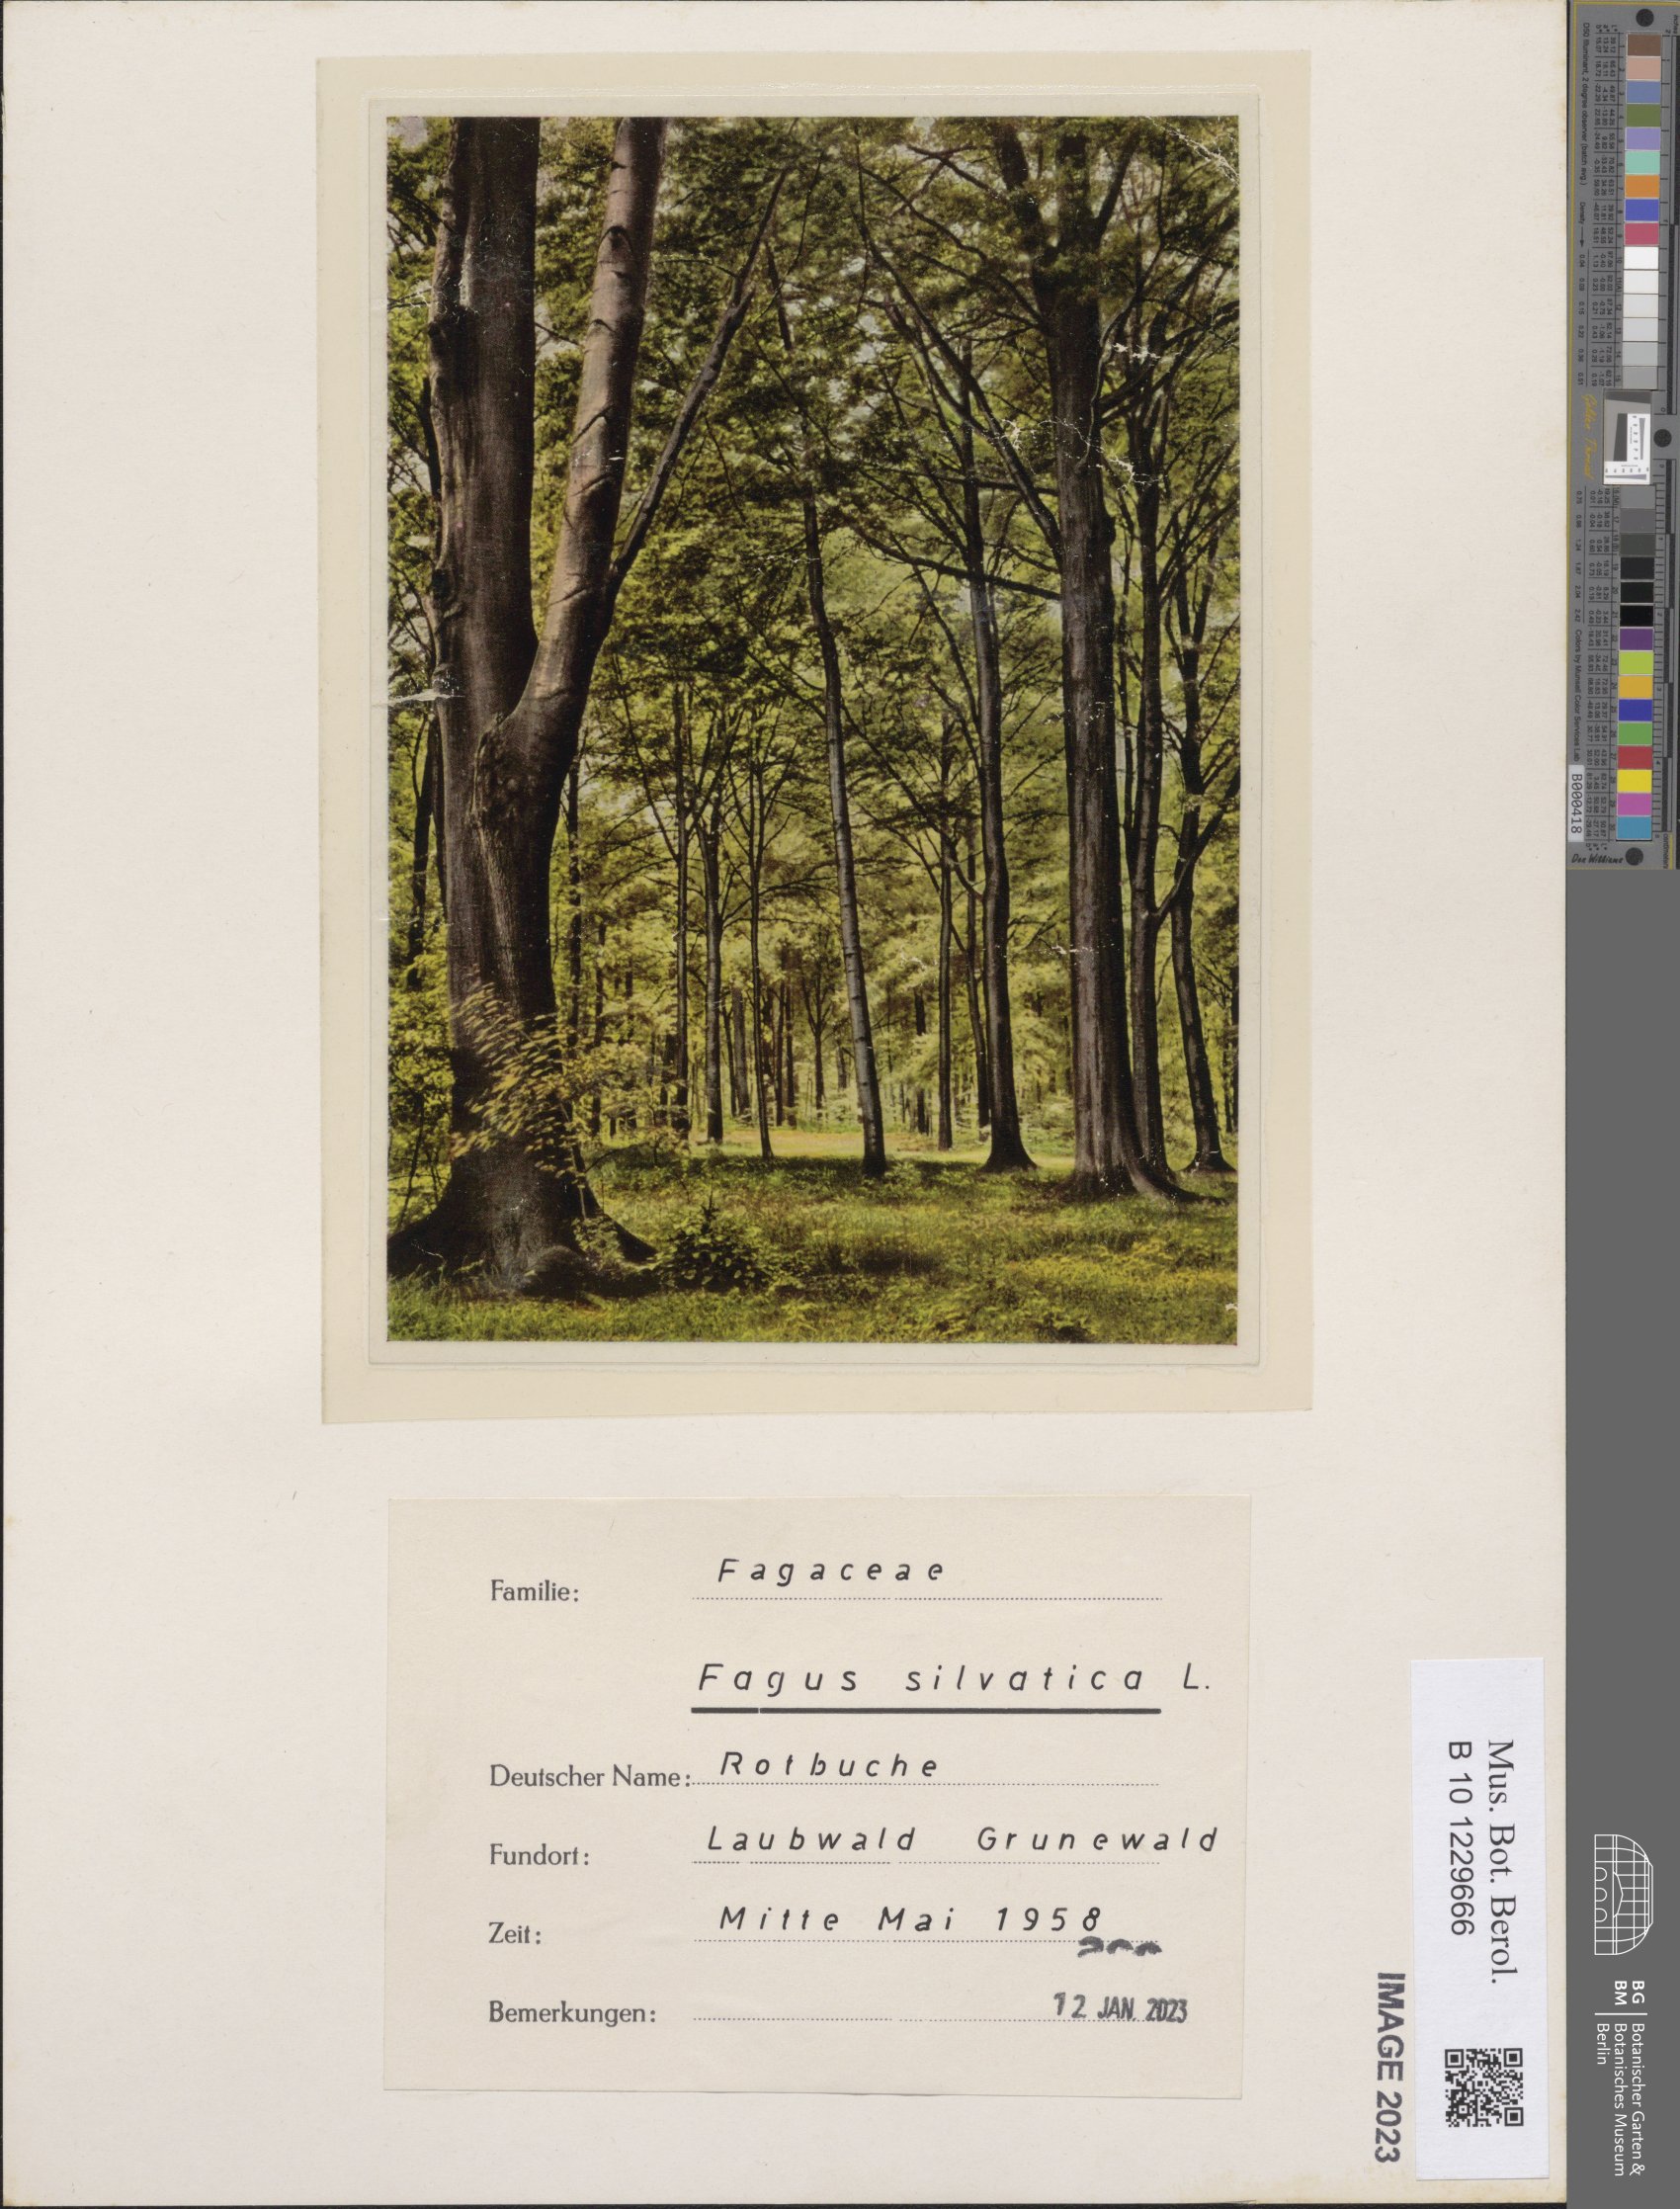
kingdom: Plantae
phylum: Tracheophyta
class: Magnoliopsida
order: Fagales
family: Fagaceae
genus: Fagus
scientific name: Fagus sylvatica
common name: Beech
